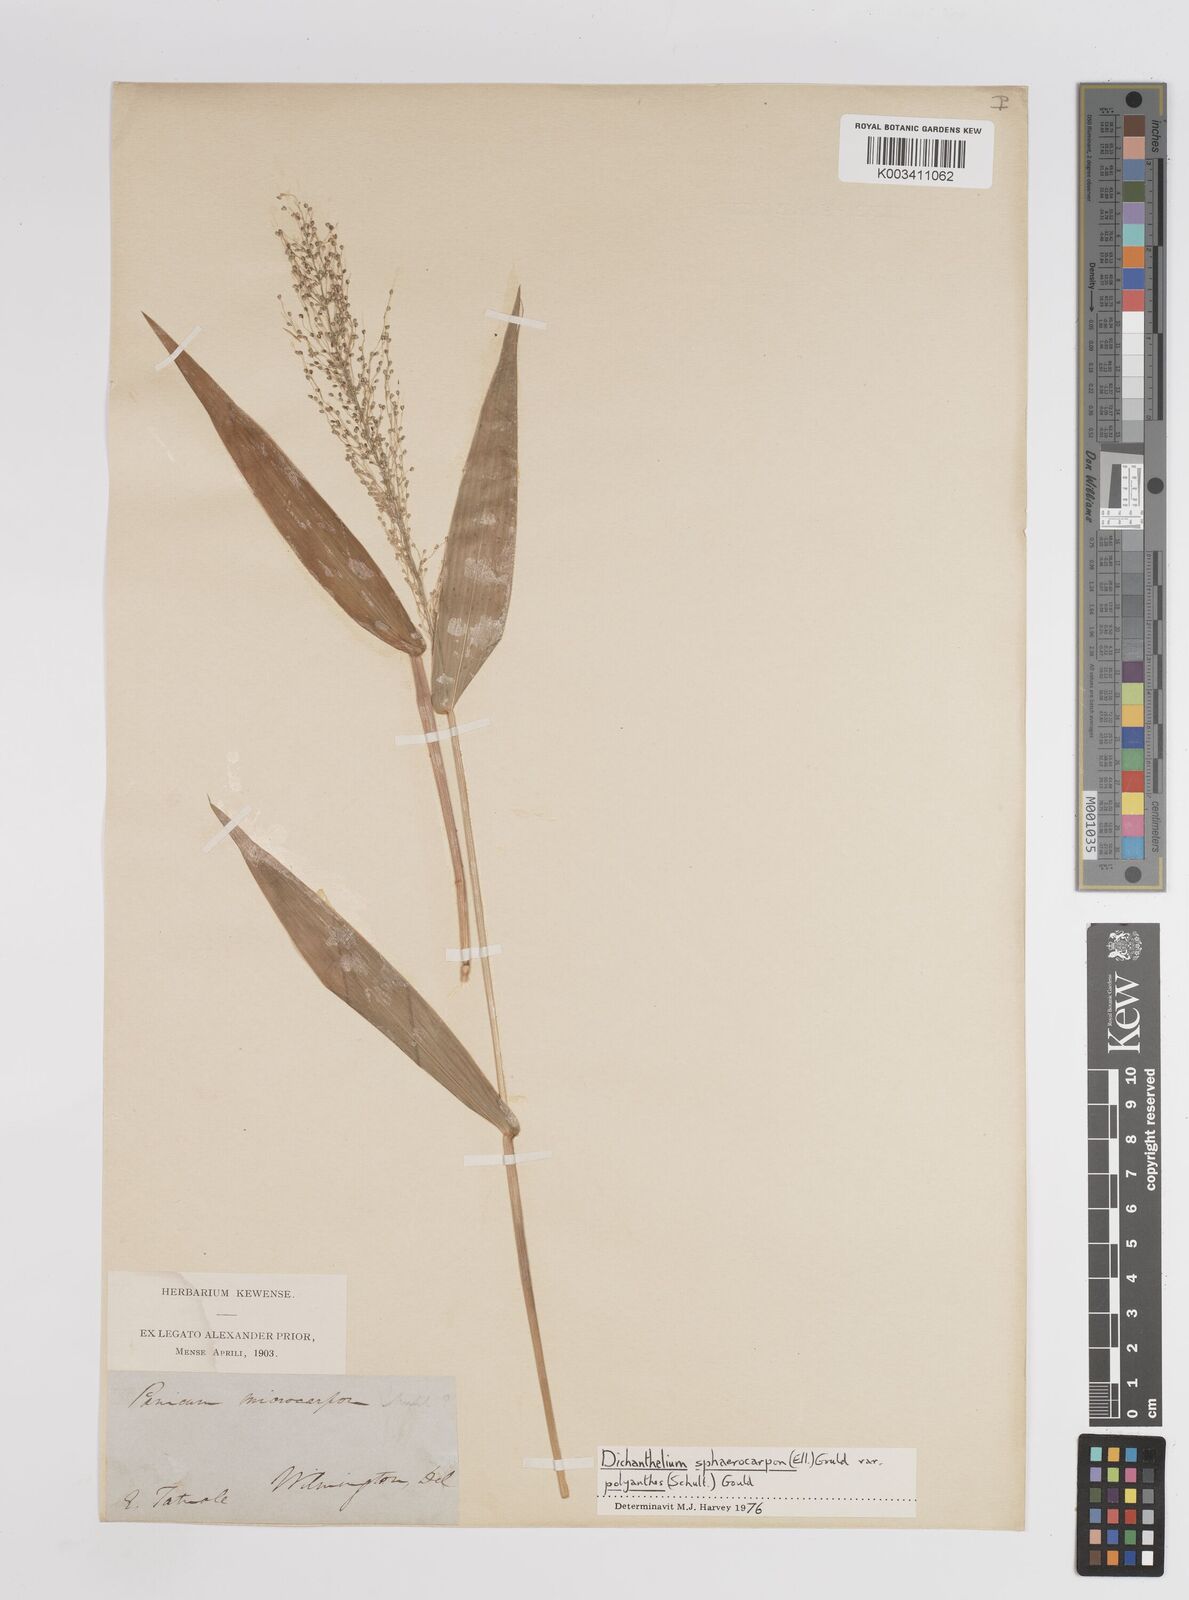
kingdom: Plantae
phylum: Tracheophyta
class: Liliopsida
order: Poales
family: Poaceae
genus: Dichanthelium
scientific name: Dichanthelium polyanthes
